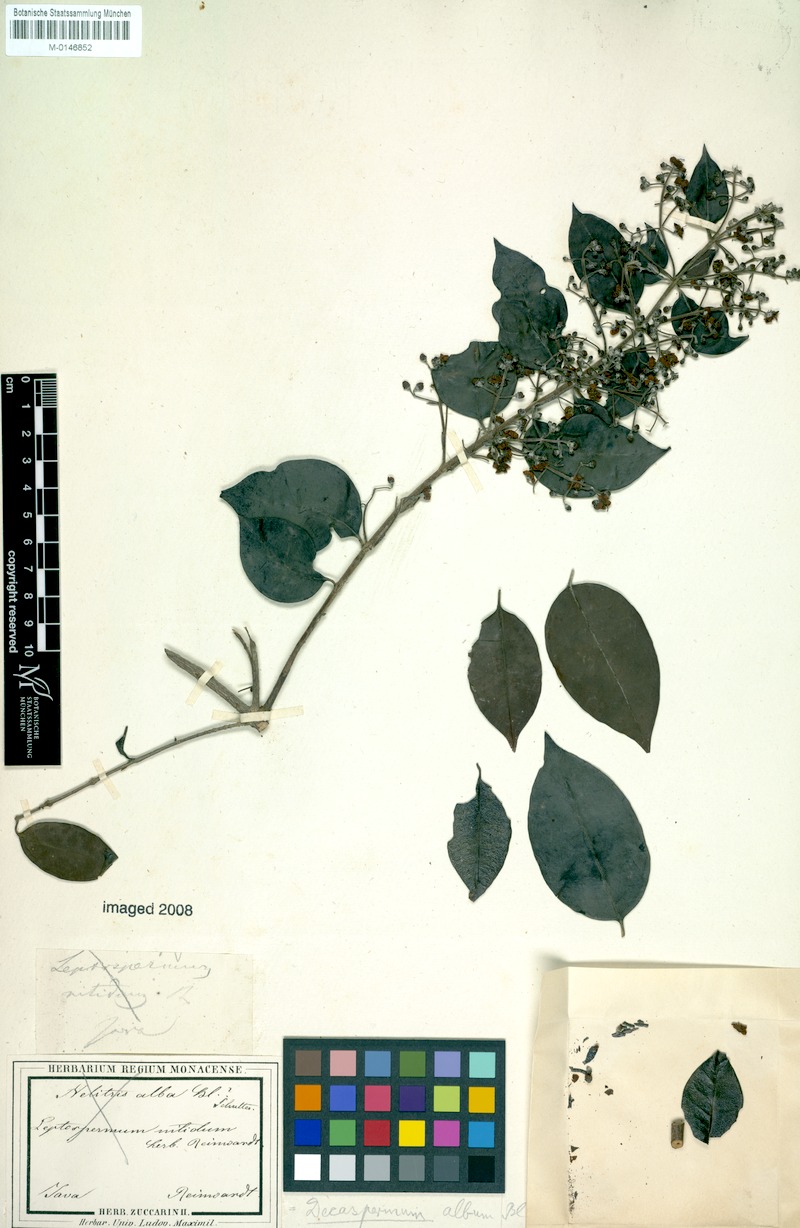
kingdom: Plantae
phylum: Tracheophyta
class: Magnoliopsida
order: Myrtales
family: Myrtaceae
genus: Decaspermum
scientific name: Decaspermum parviflorum
